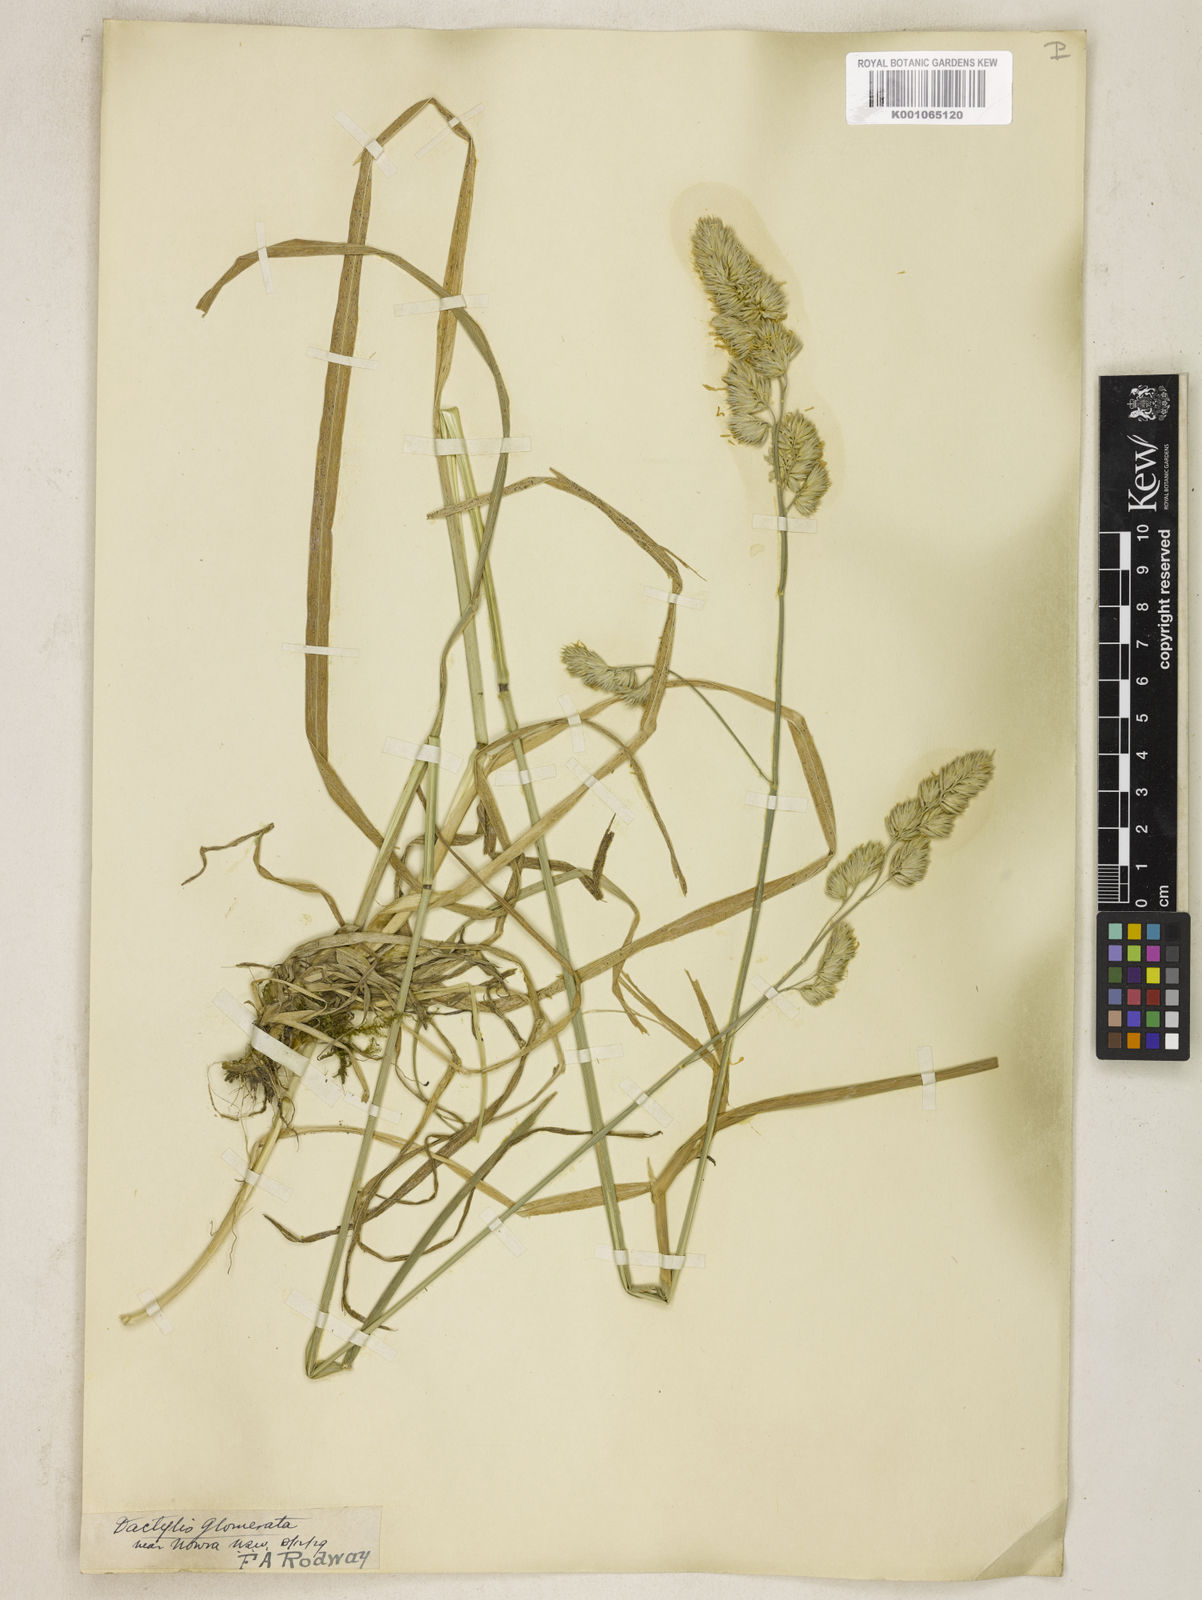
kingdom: Plantae
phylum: Tracheophyta
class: Liliopsida
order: Poales
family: Poaceae
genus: Dactylis
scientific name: Dactylis glomerata
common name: Orchardgrass
